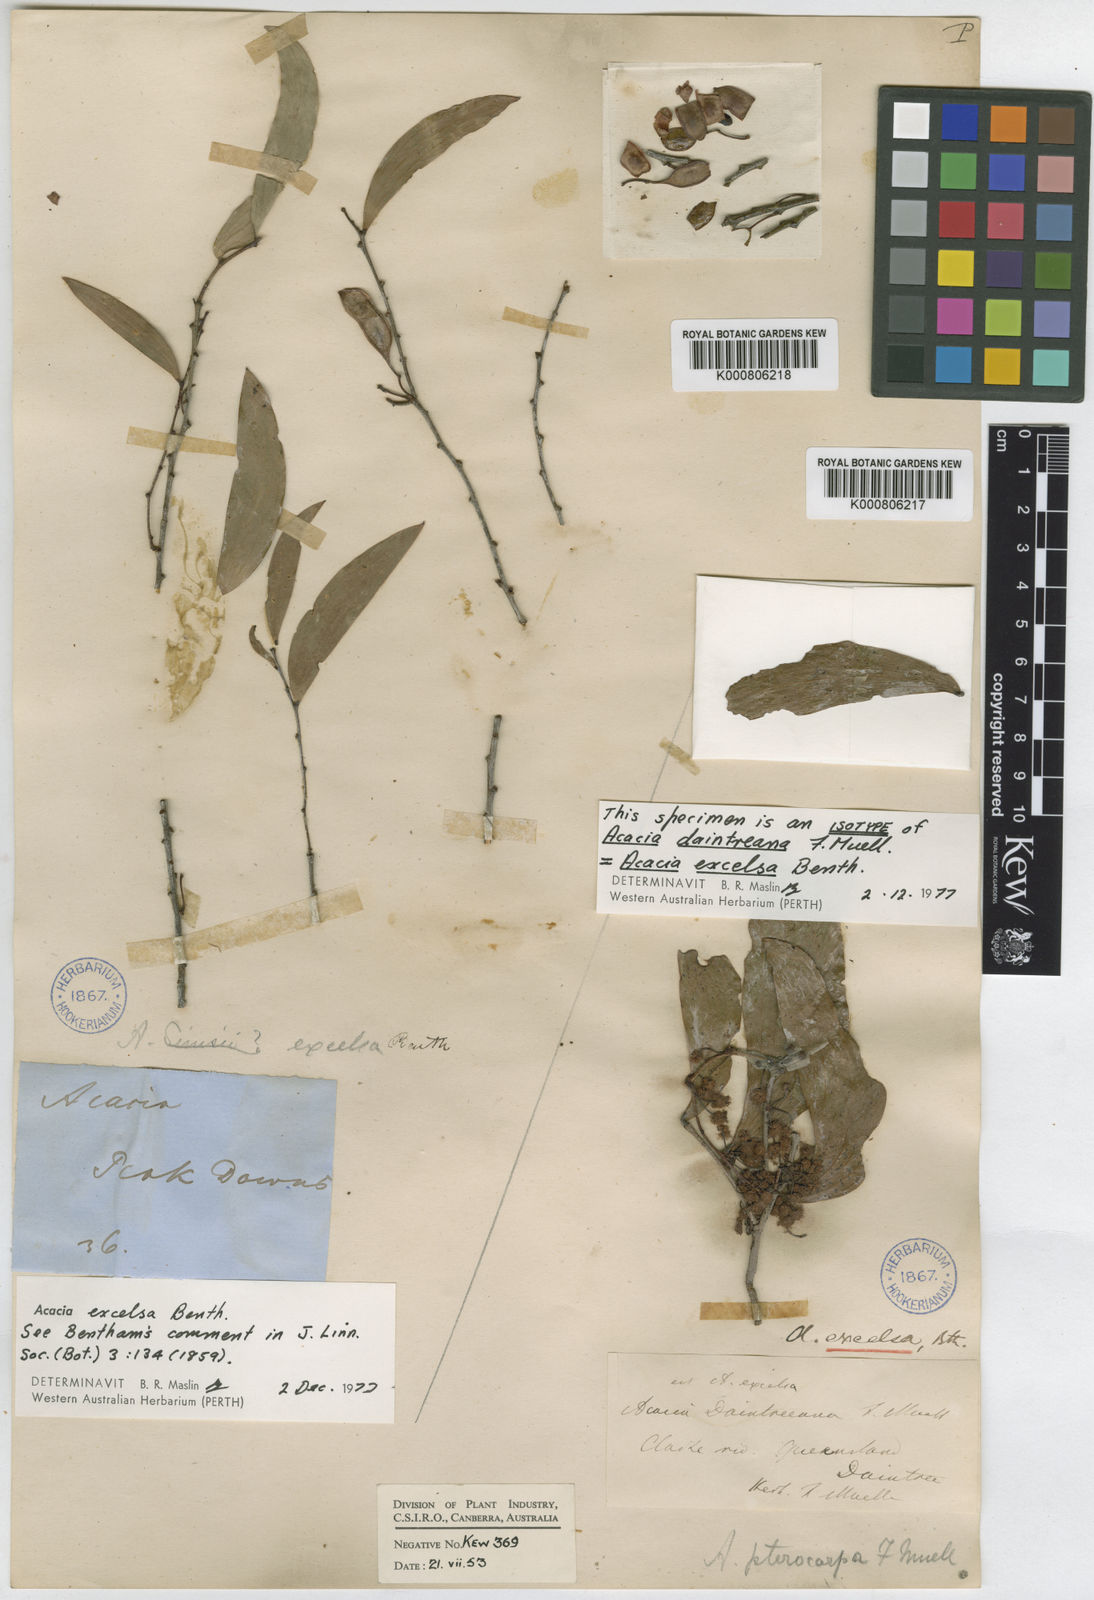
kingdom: Plantae
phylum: Tracheophyta
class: Magnoliopsida
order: Fabales
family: Fabaceae
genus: Acacia
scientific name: Acacia excelsa
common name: Ironwood
